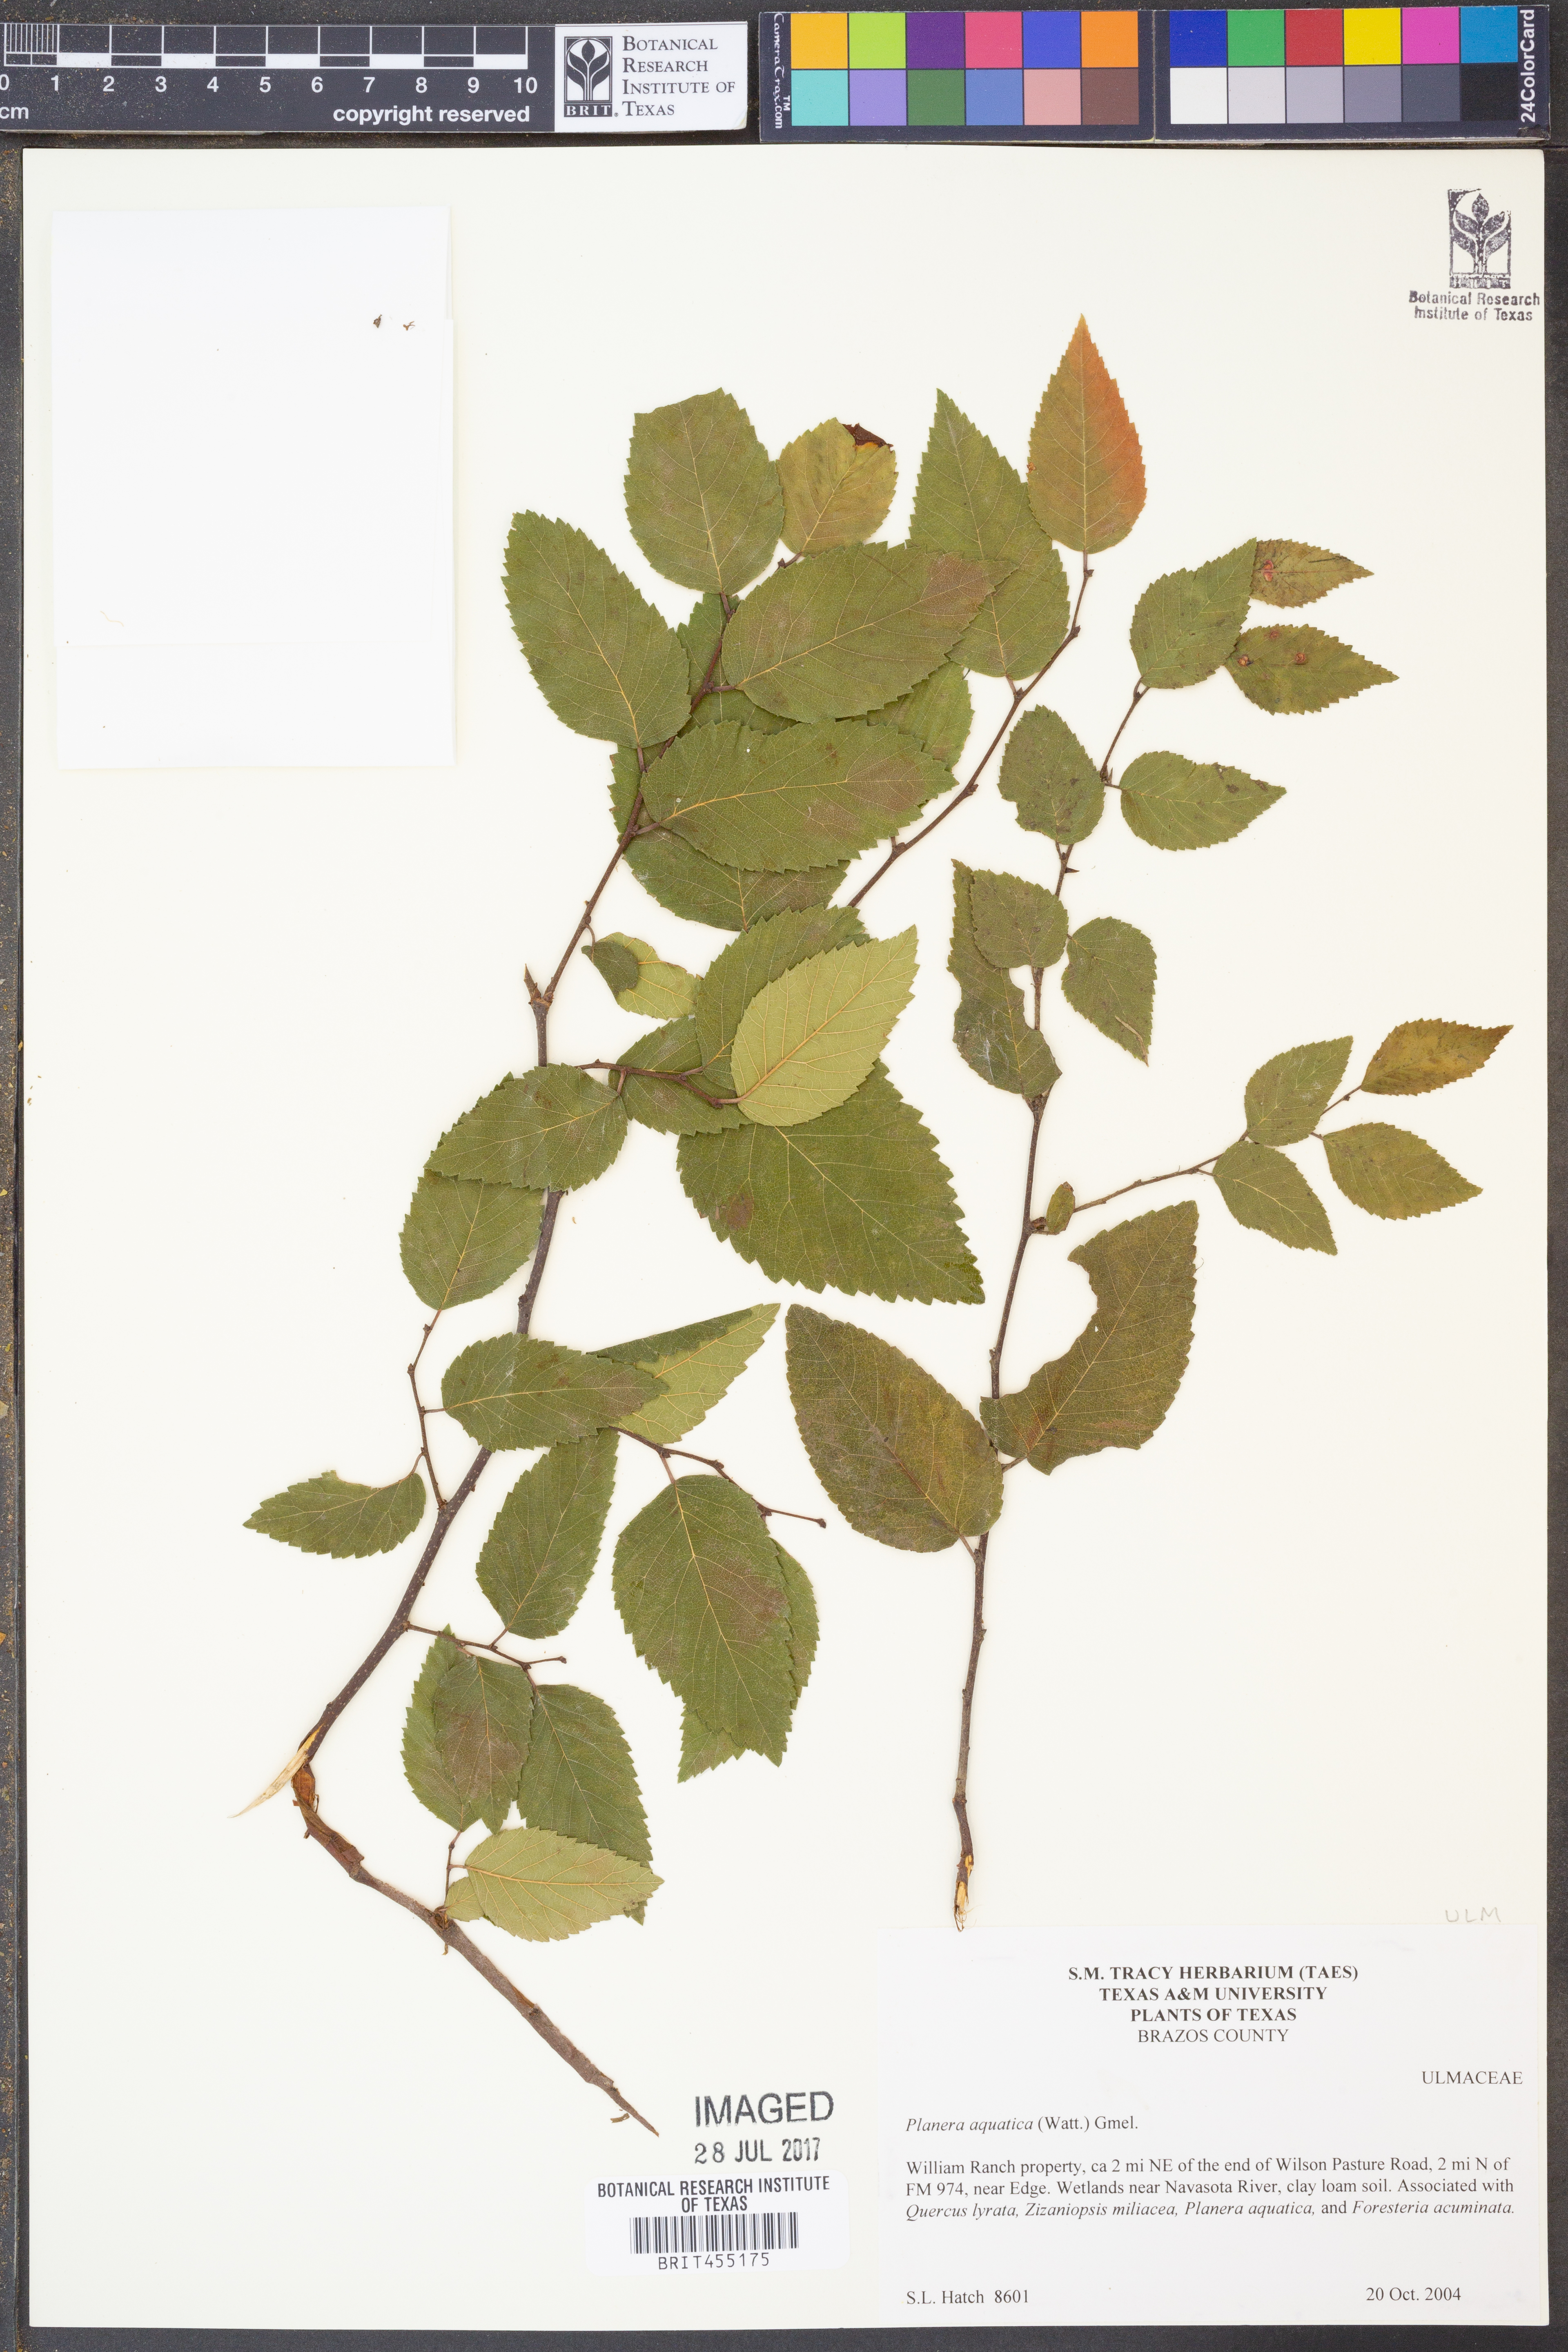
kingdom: Plantae
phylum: Tracheophyta
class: Magnoliopsida
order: Rosales
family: Ulmaceae
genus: Planera
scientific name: Planera aquatica
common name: Water-elm
